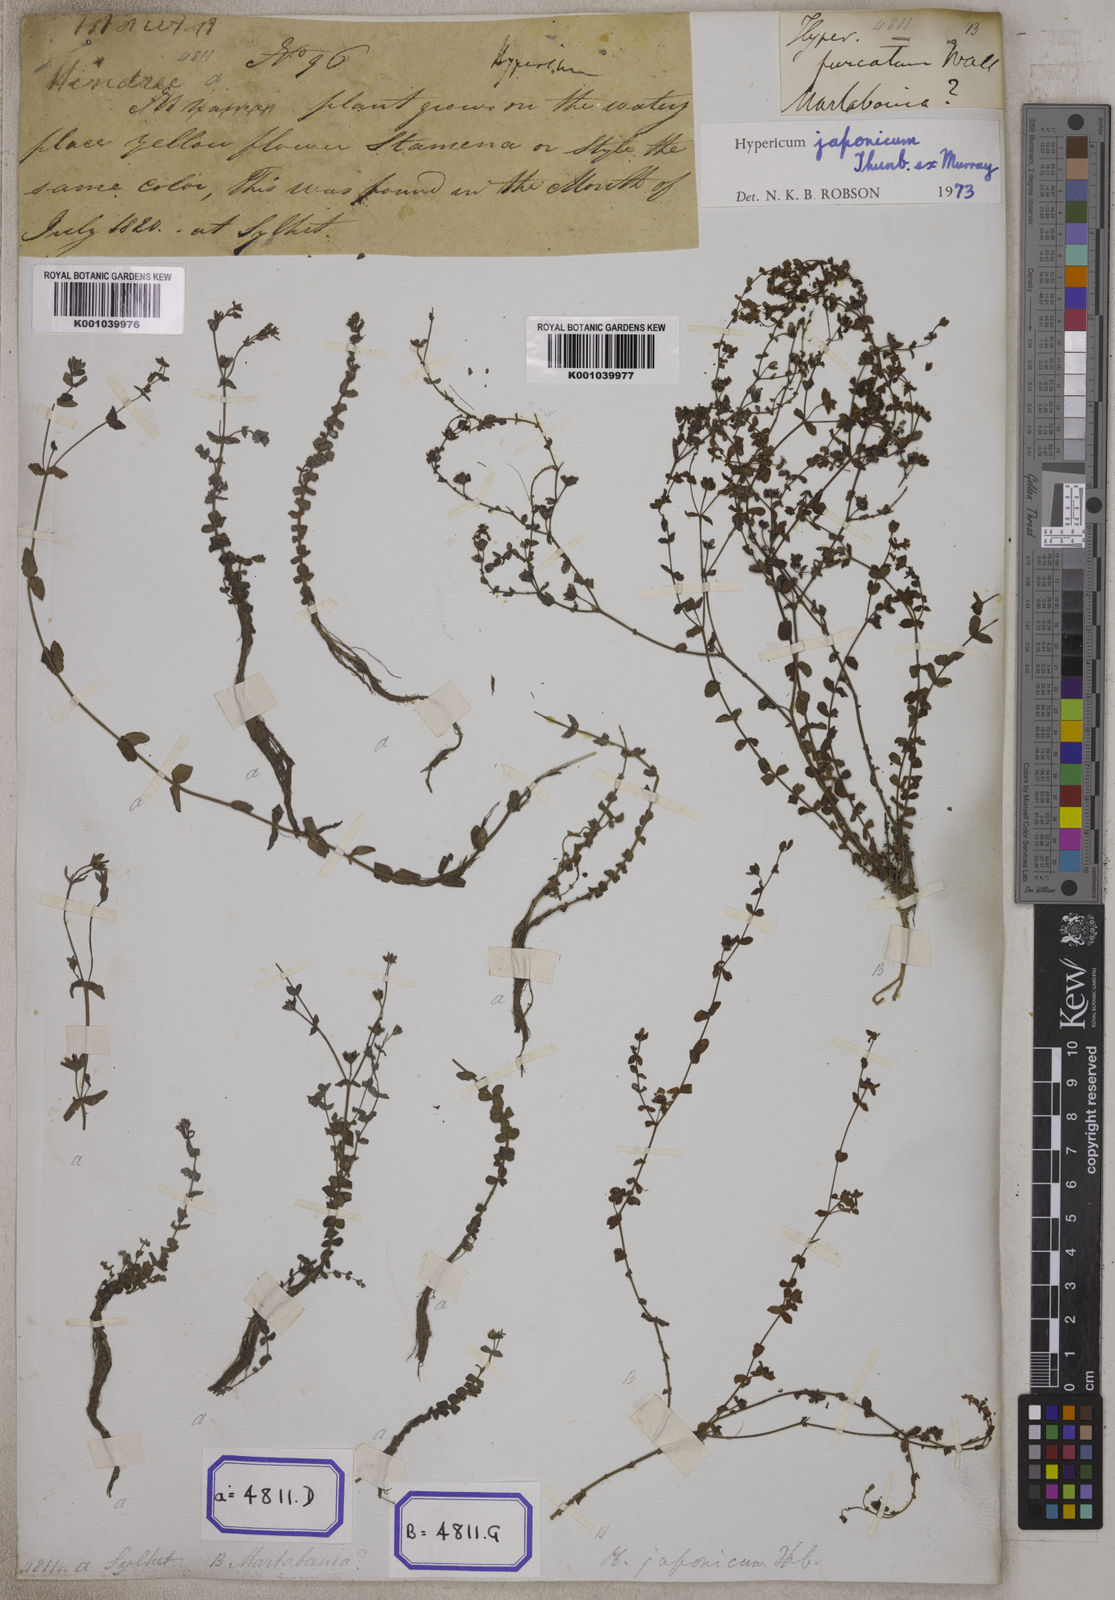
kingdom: Plantae
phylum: Tracheophyta
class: Magnoliopsida
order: Malpighiales
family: Hypericaceae
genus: Hypericum
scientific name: Hypericum japonicum
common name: Matted st. john's-wort
